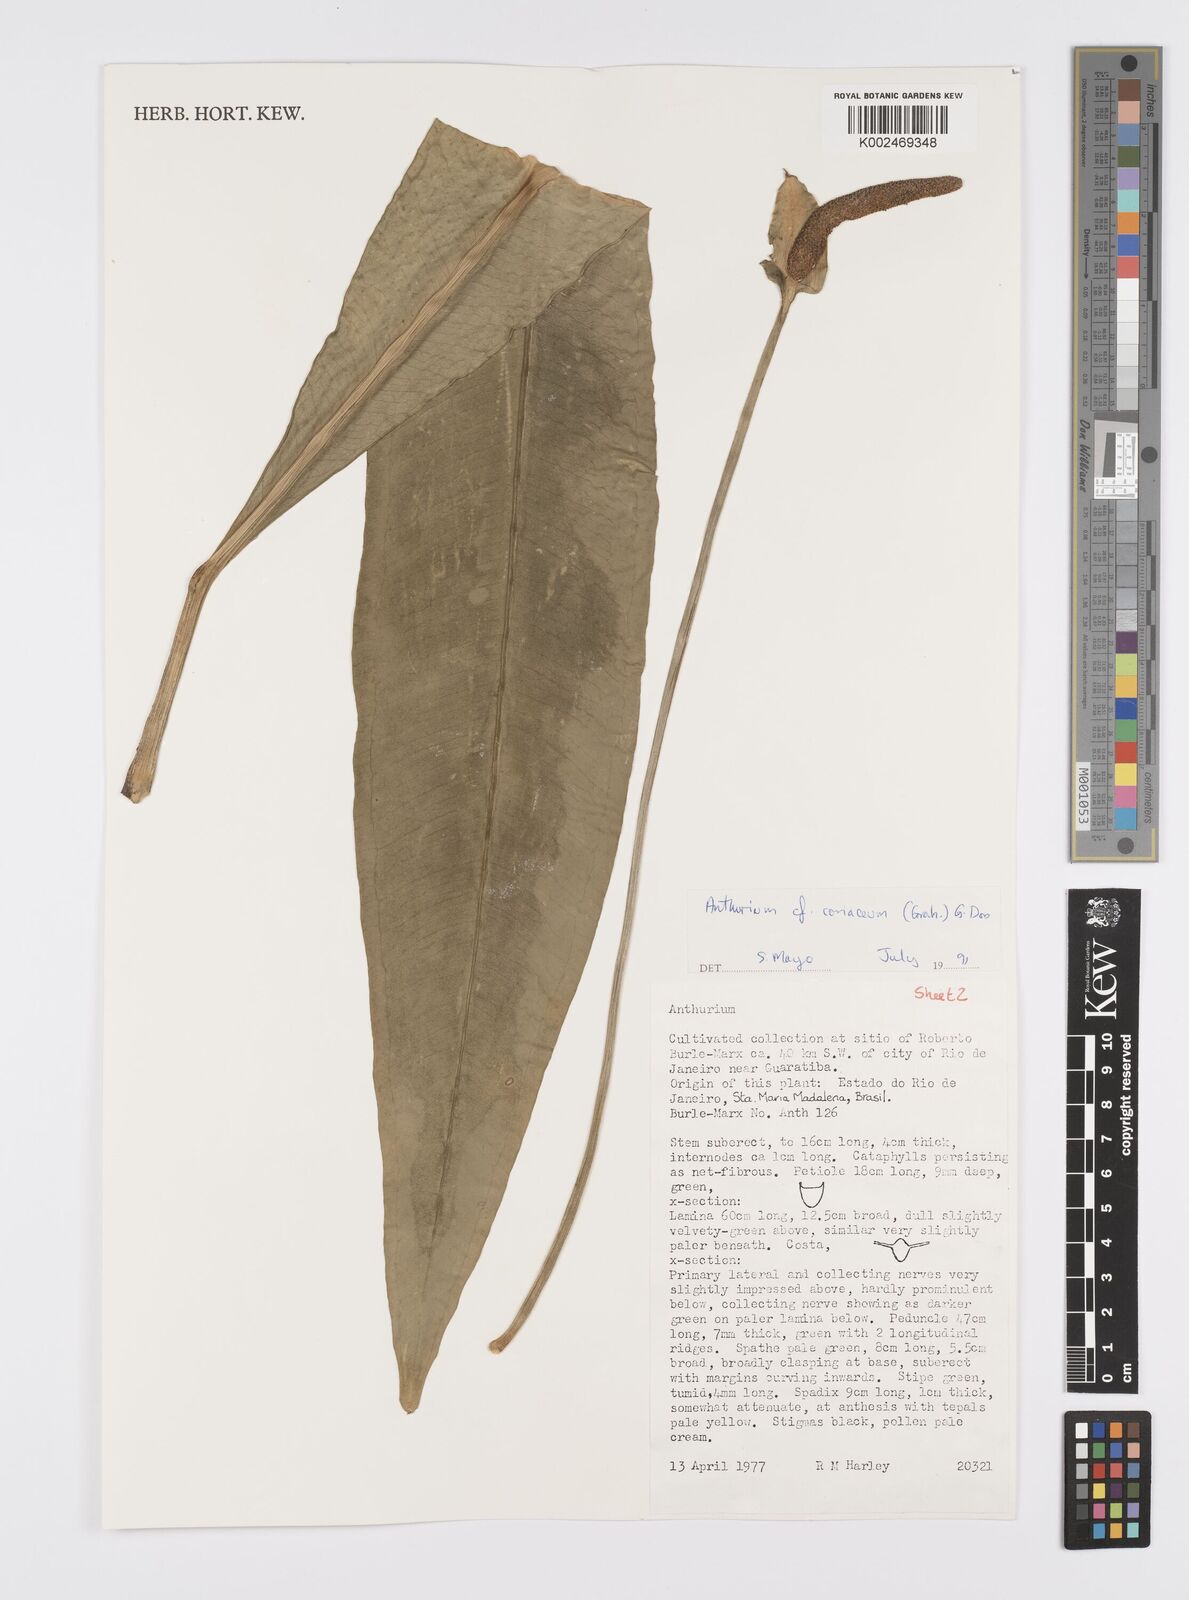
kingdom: Plantae
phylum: Tracheophyta
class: Liliopsida
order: Alismatales
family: Araceae
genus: Anthurium
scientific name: Anthurium
